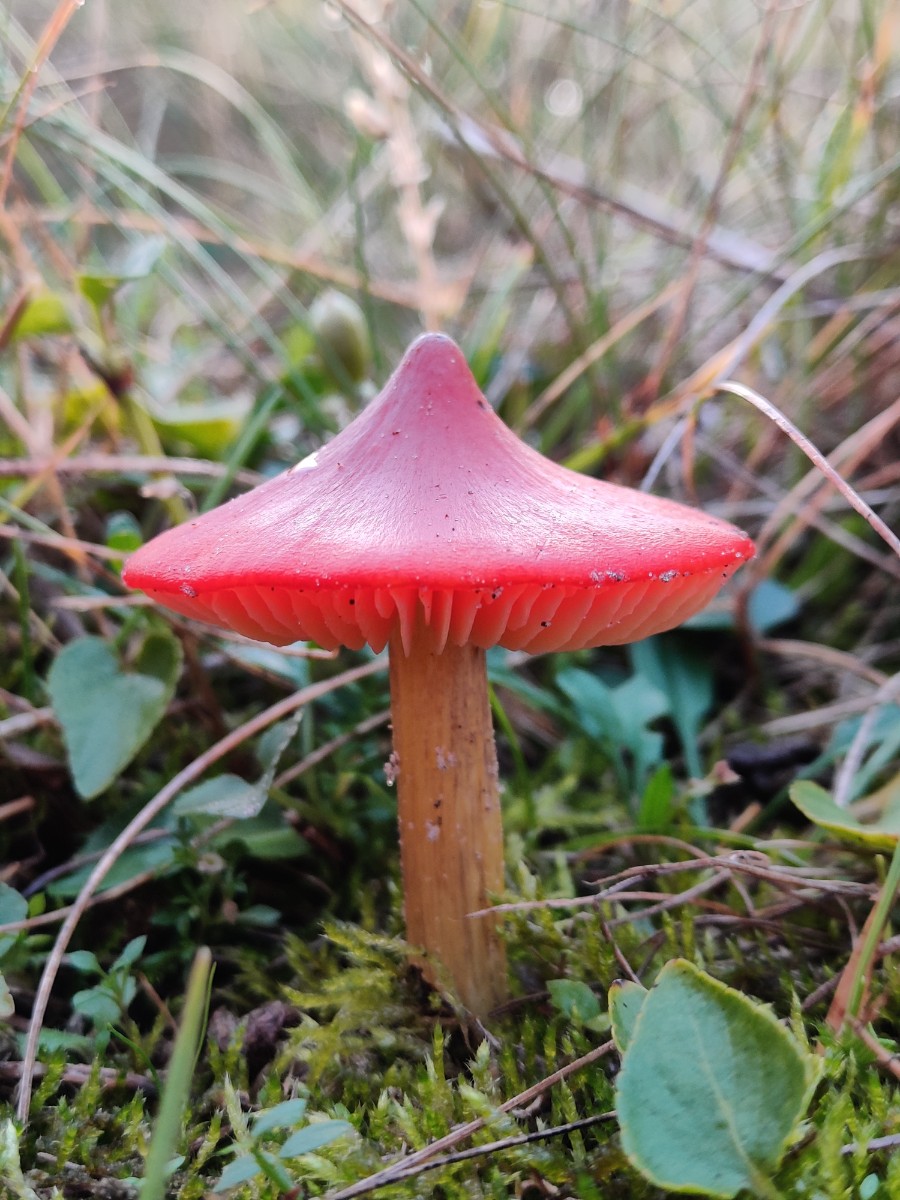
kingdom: Fungi
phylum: Basidiomycota
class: Agaricomycetes
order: Agaricales
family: Hygrophoraceae
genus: Hygrocybe
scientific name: Hygrocybe
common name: vokshat
